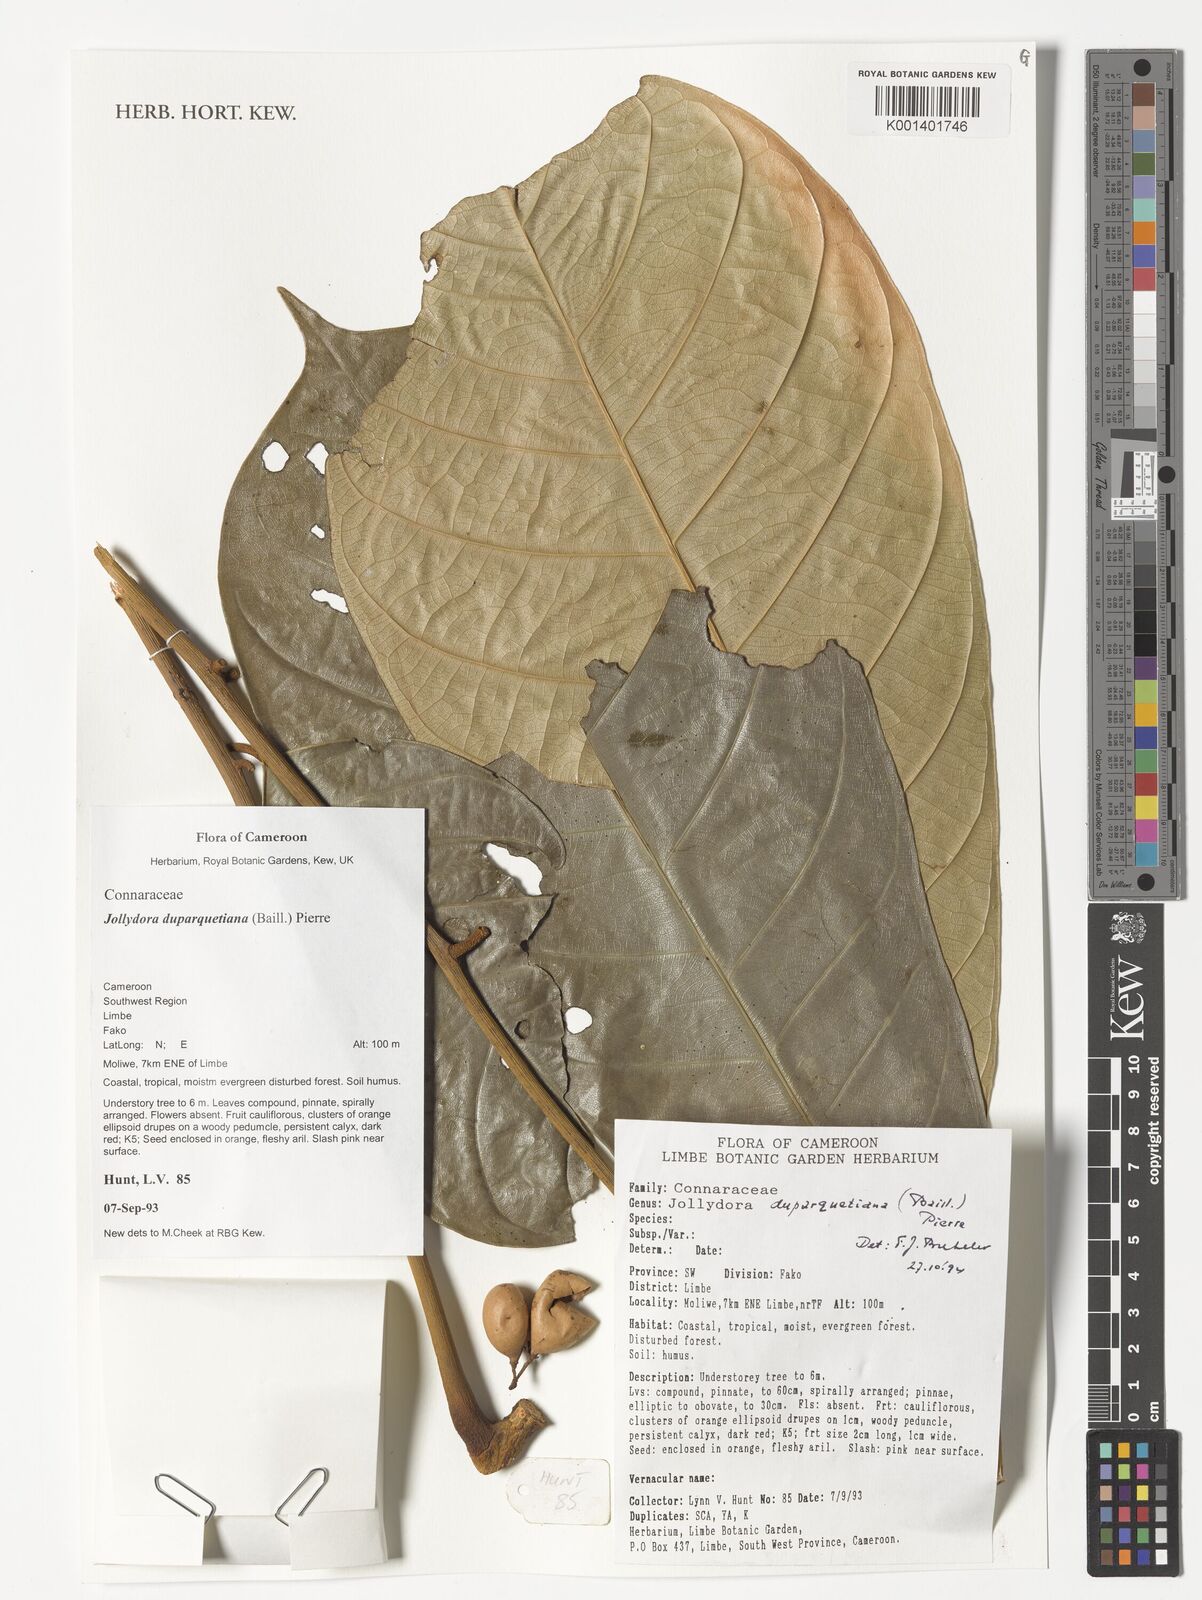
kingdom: Plantae
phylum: Tracheophyta
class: Magnoliopsida
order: Oxalidales
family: Connaraceae
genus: Jollydora
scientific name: Jollydora duparquetiana
